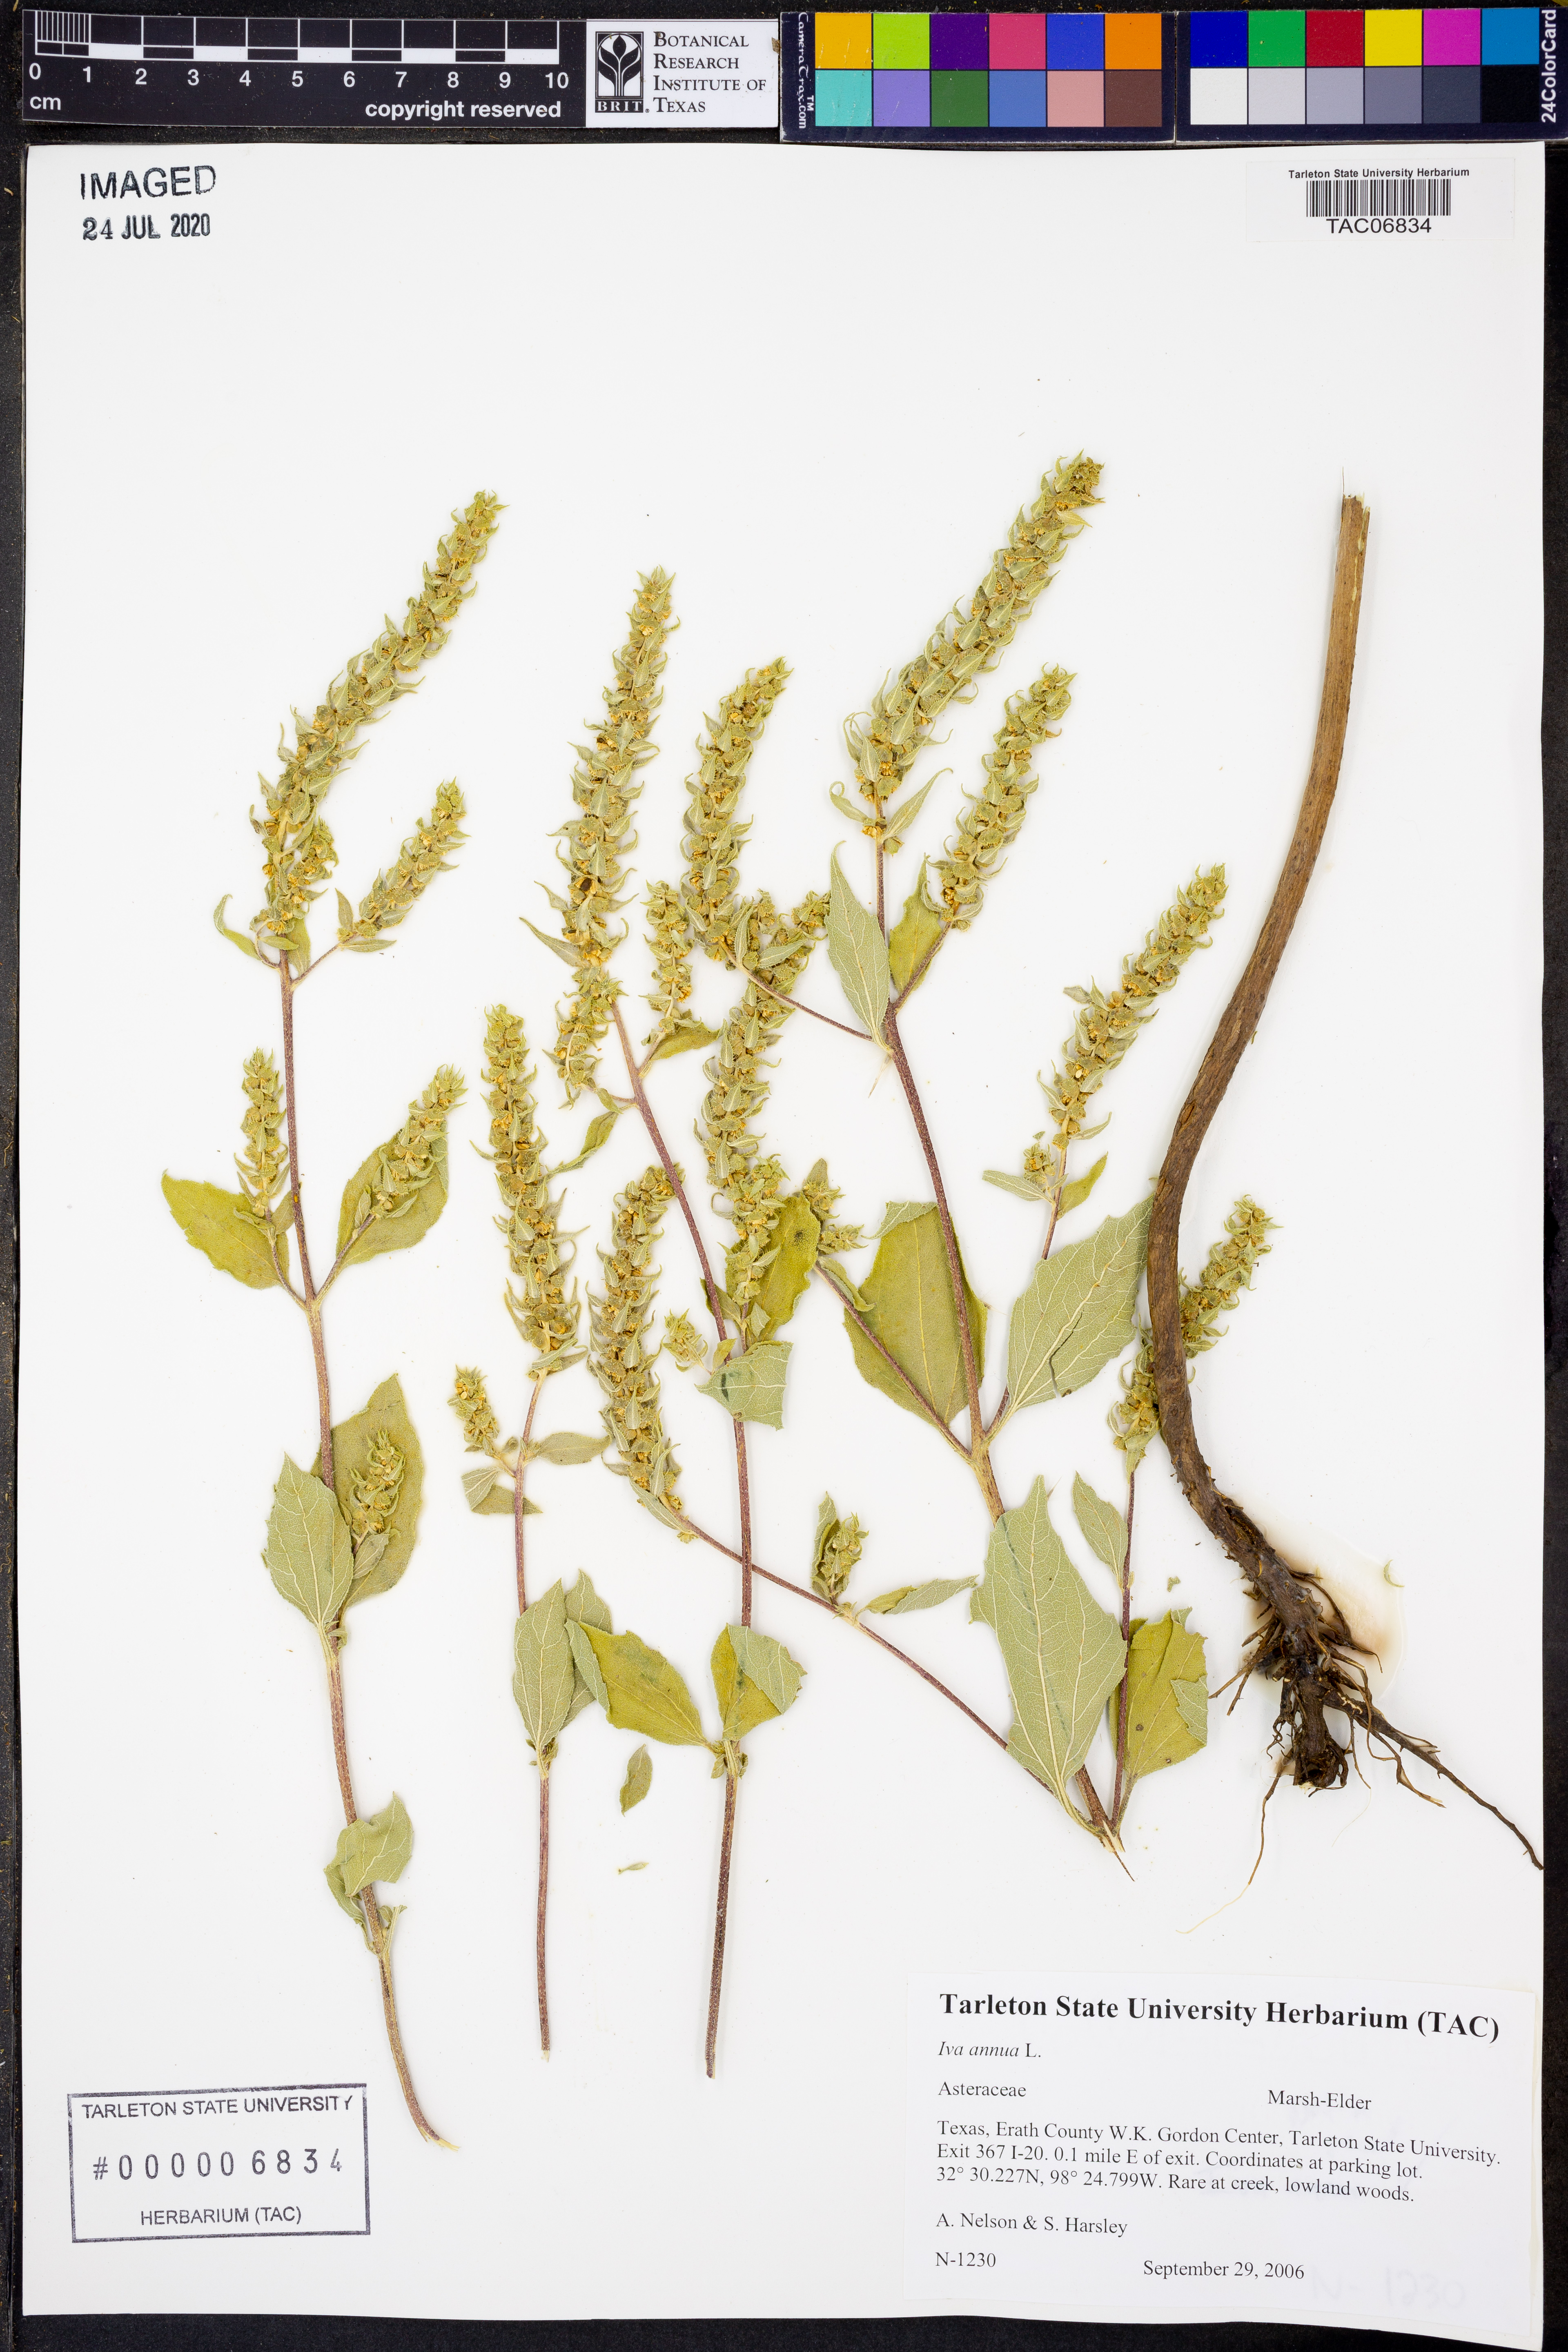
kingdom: Plantae
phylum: Tracheophyta
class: Magnoliopsida
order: Asterales
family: Asteraceae
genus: Iva
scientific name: Iva annua
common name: Marsh-elder
